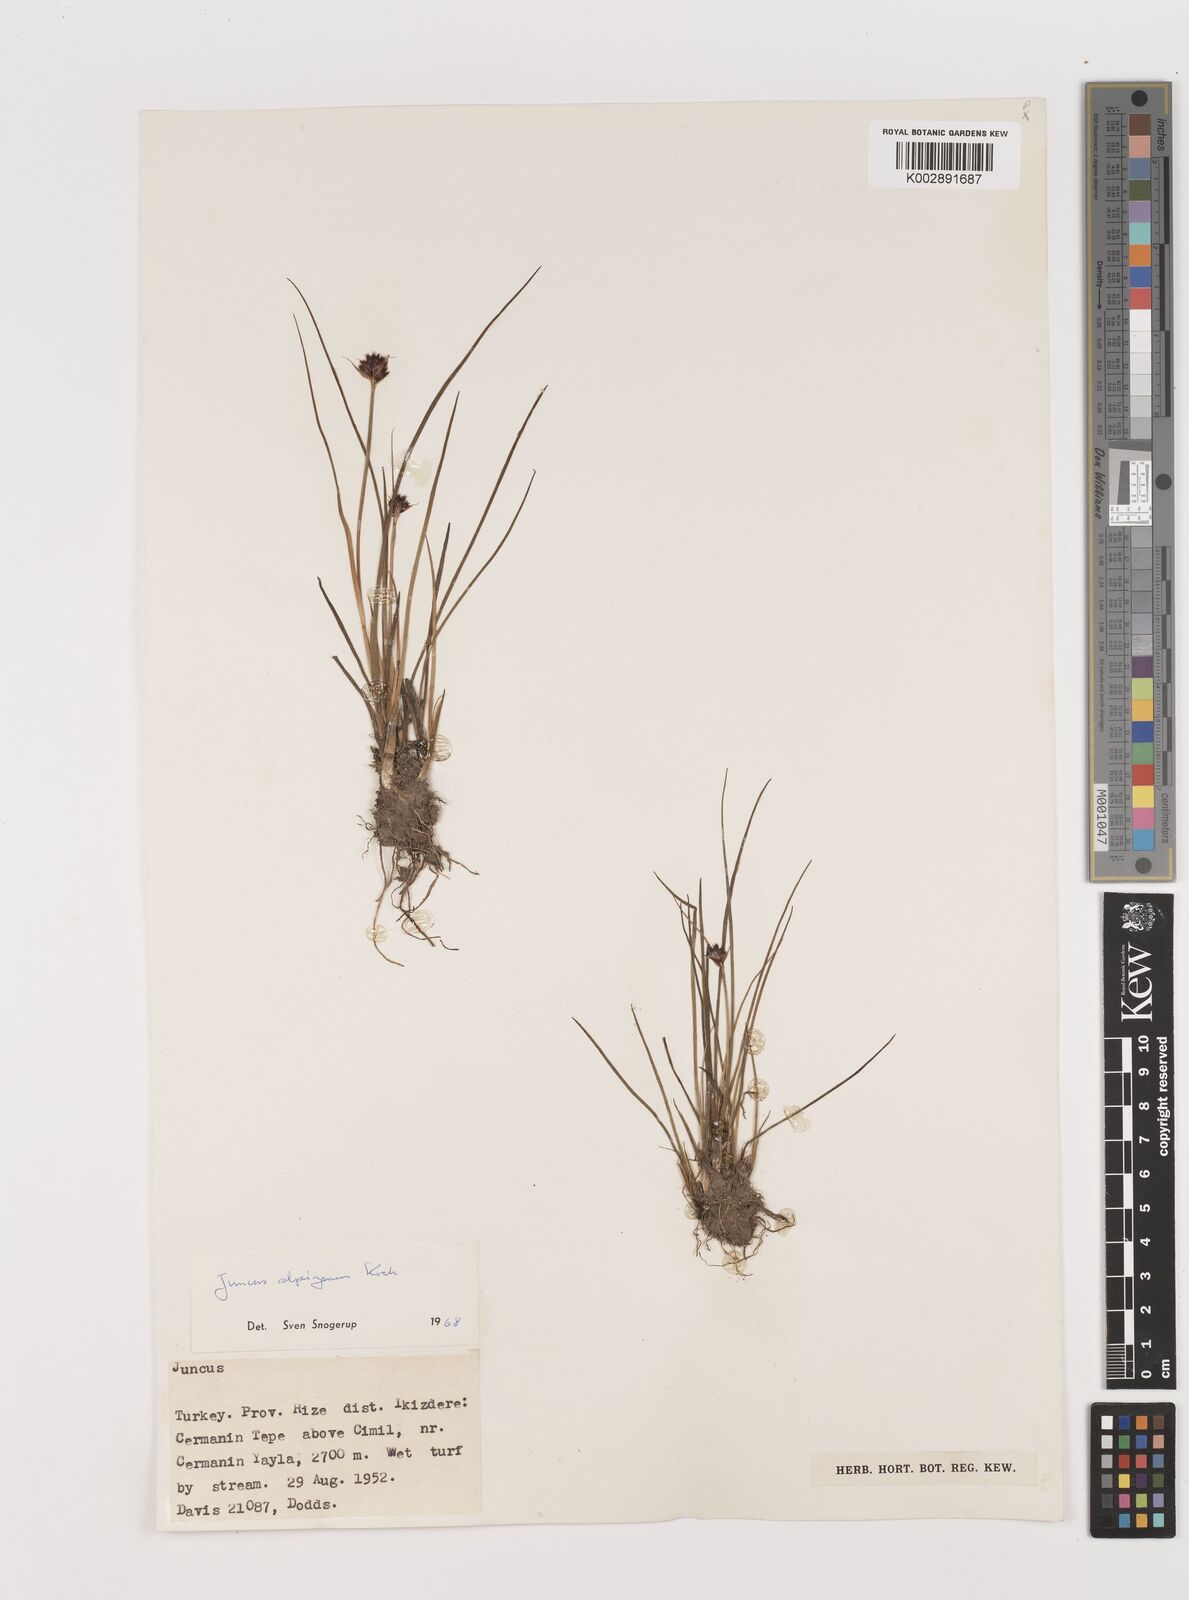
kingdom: Plantae
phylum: Tracheophyta
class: Liliopsida
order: Poales
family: Juncaceae
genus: Juncus
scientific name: Juncus alpigenus
